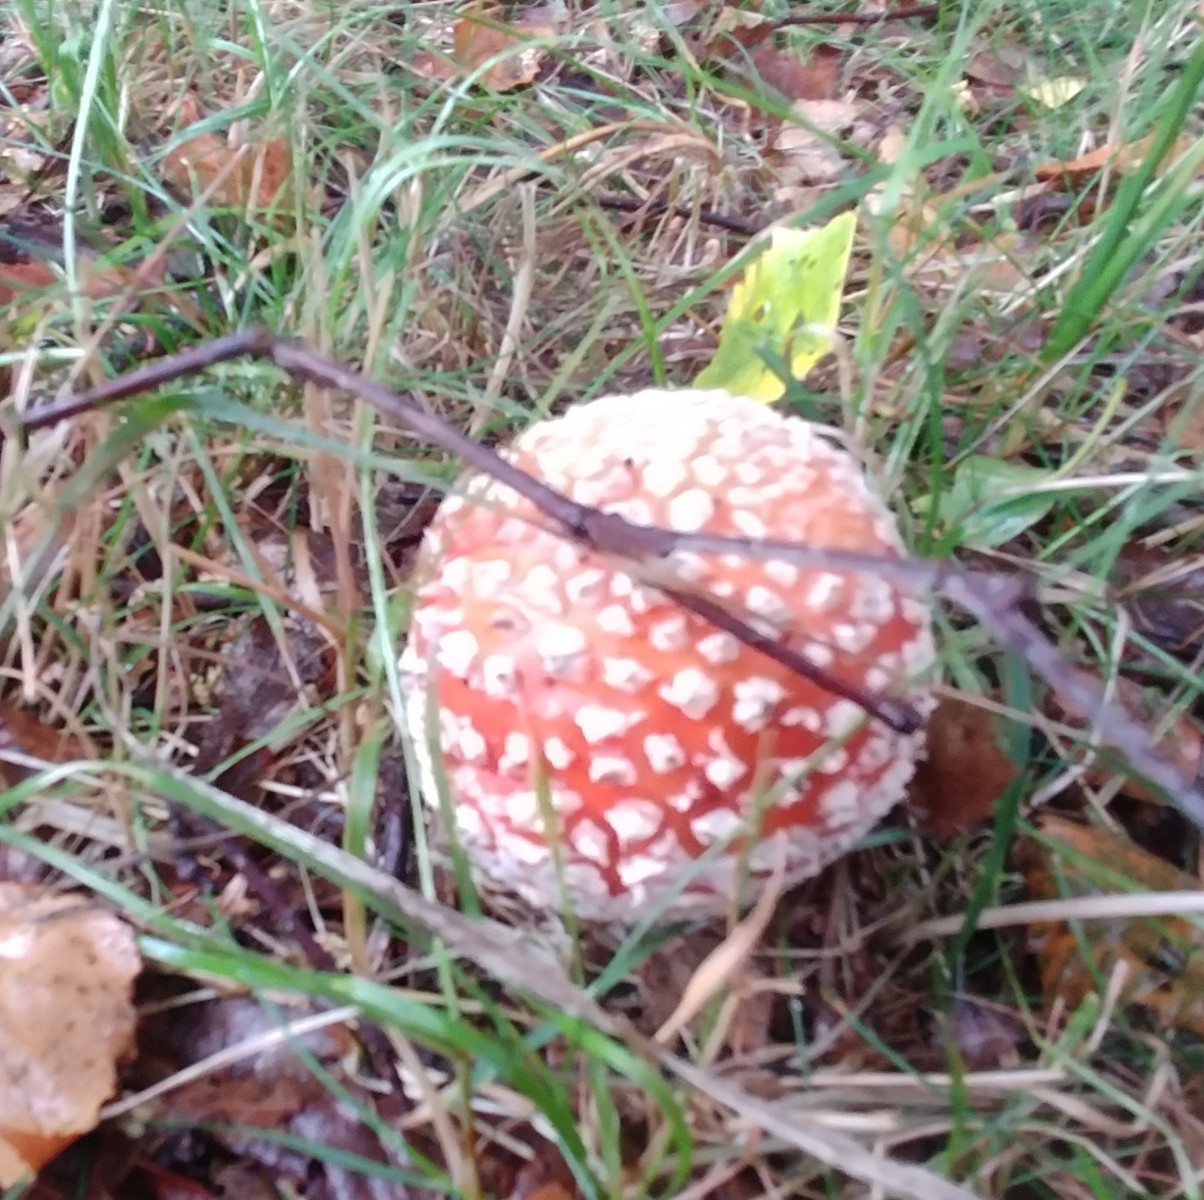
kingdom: Fungi
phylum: Basidiomycota
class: Agaricomycetes
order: Agaricales
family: Amanitaceae
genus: Amanita
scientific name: Amanita muscaria
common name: rød fluesvamp
